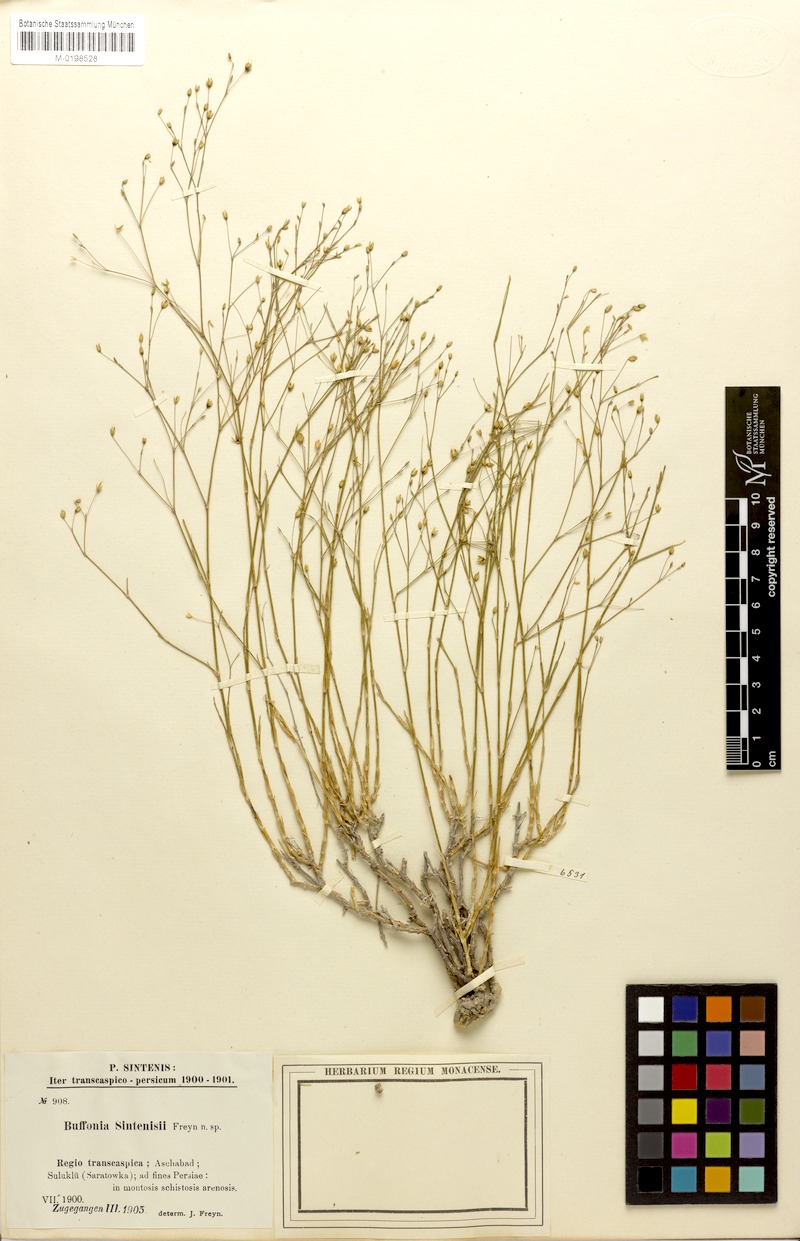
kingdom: Plantae
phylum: Tracheophyta
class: Magnoliopsida
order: Caryophyllales
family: Caryophyllaceae
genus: Bufonia
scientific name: Bufonia sintenisii
